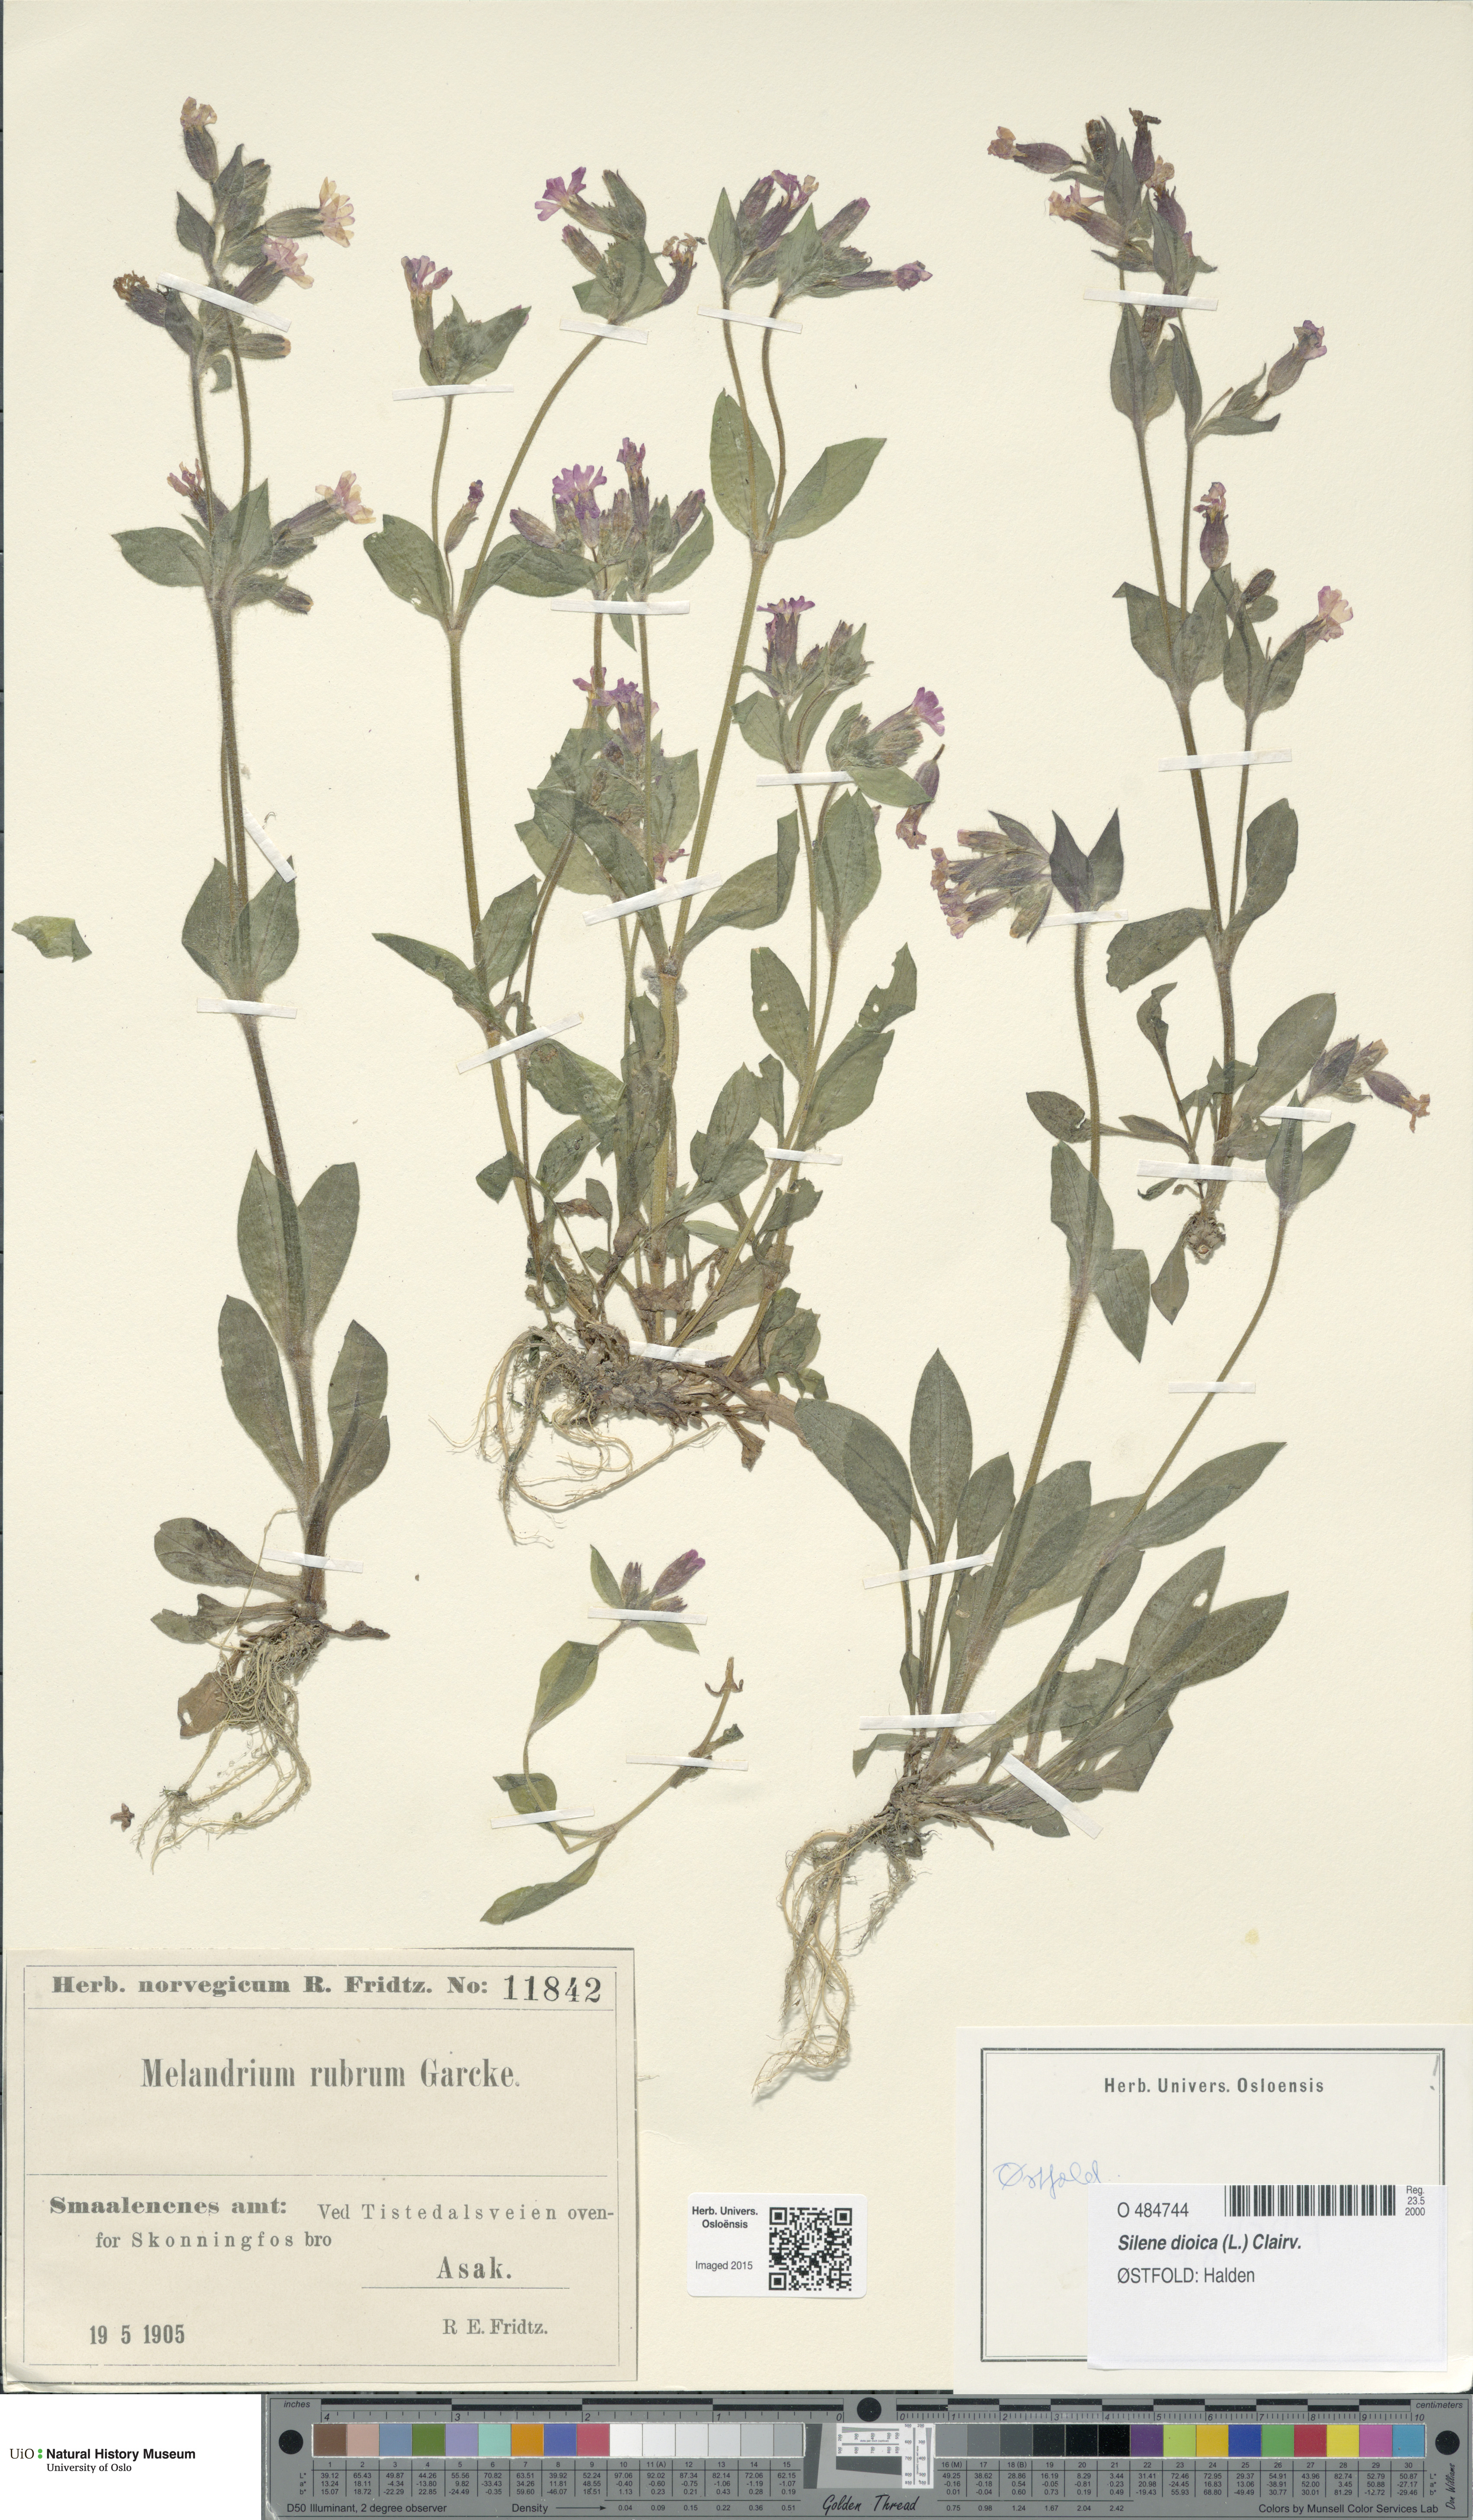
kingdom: Plantae
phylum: Tracheophyta
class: Magnoliopsida
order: Caryophyllales
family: Caryophyllaceae
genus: Silene
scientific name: Silene dioica
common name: Red campion
